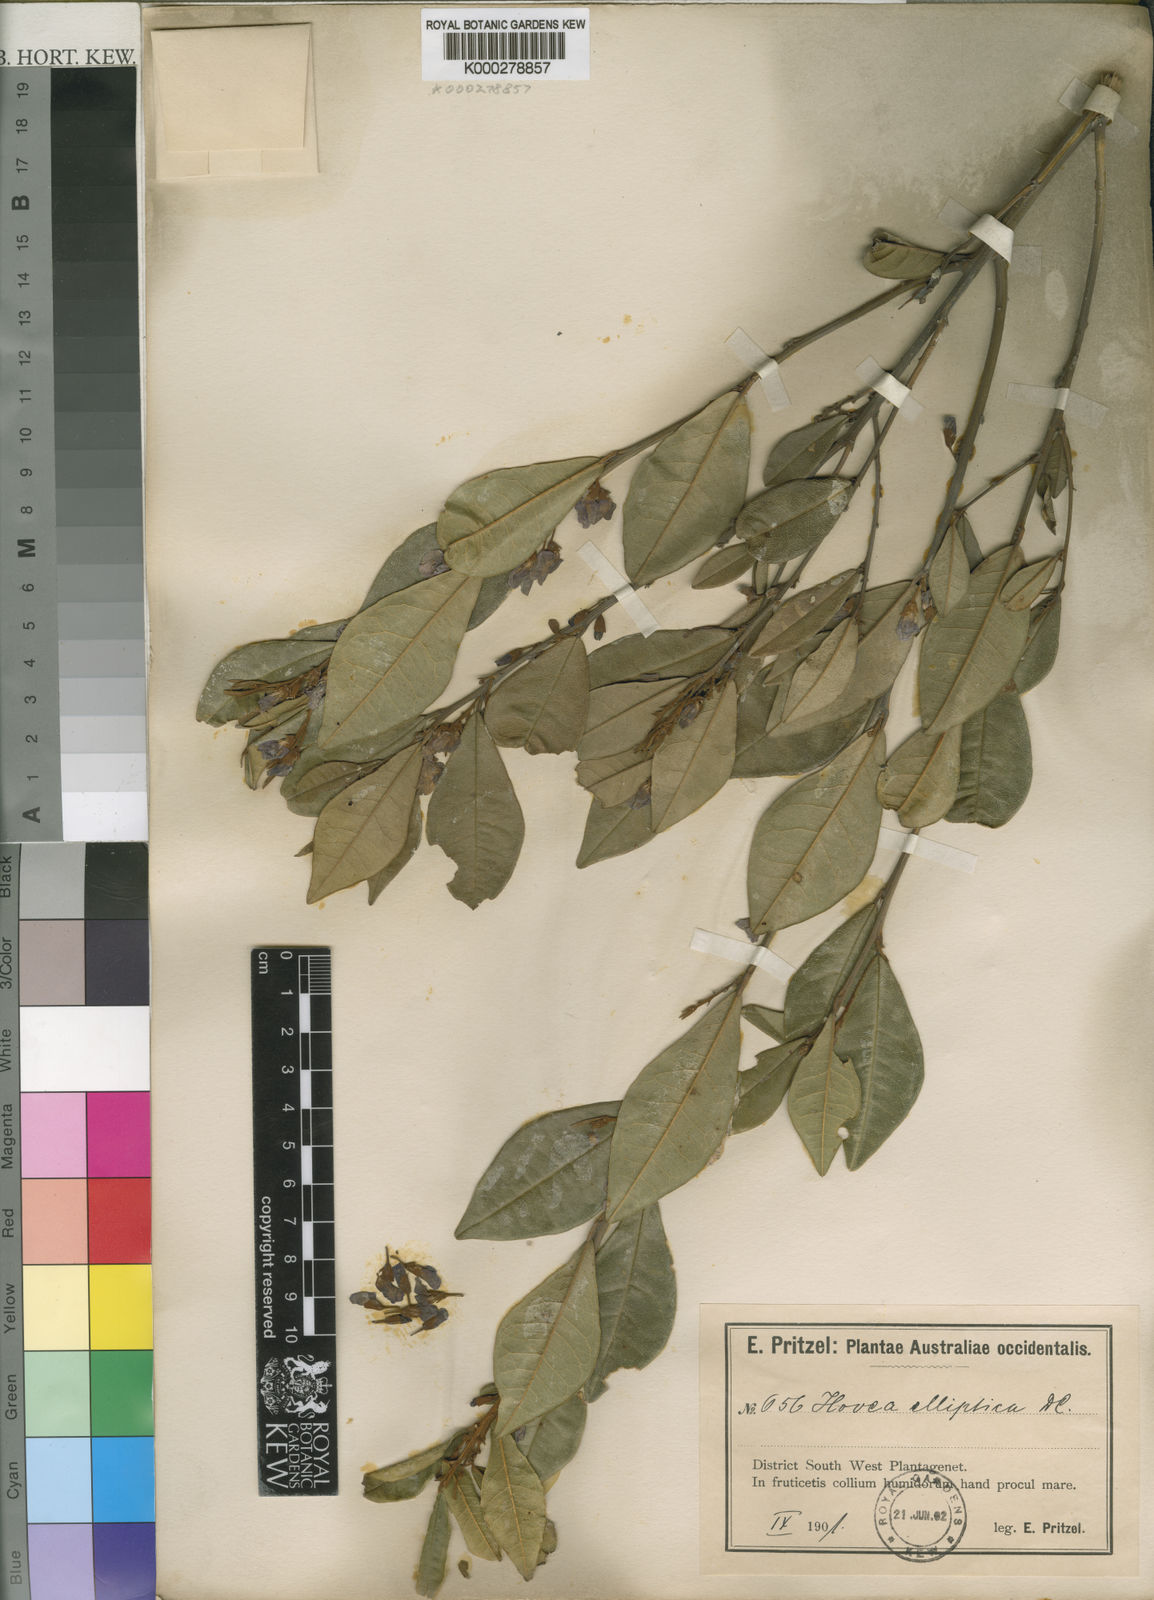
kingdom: Plantae
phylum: Tracheophyta
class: Magnoliopsida
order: Fabales
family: Fabaceae
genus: Hovea
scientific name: Hovea elliptica
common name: Tree hovea
